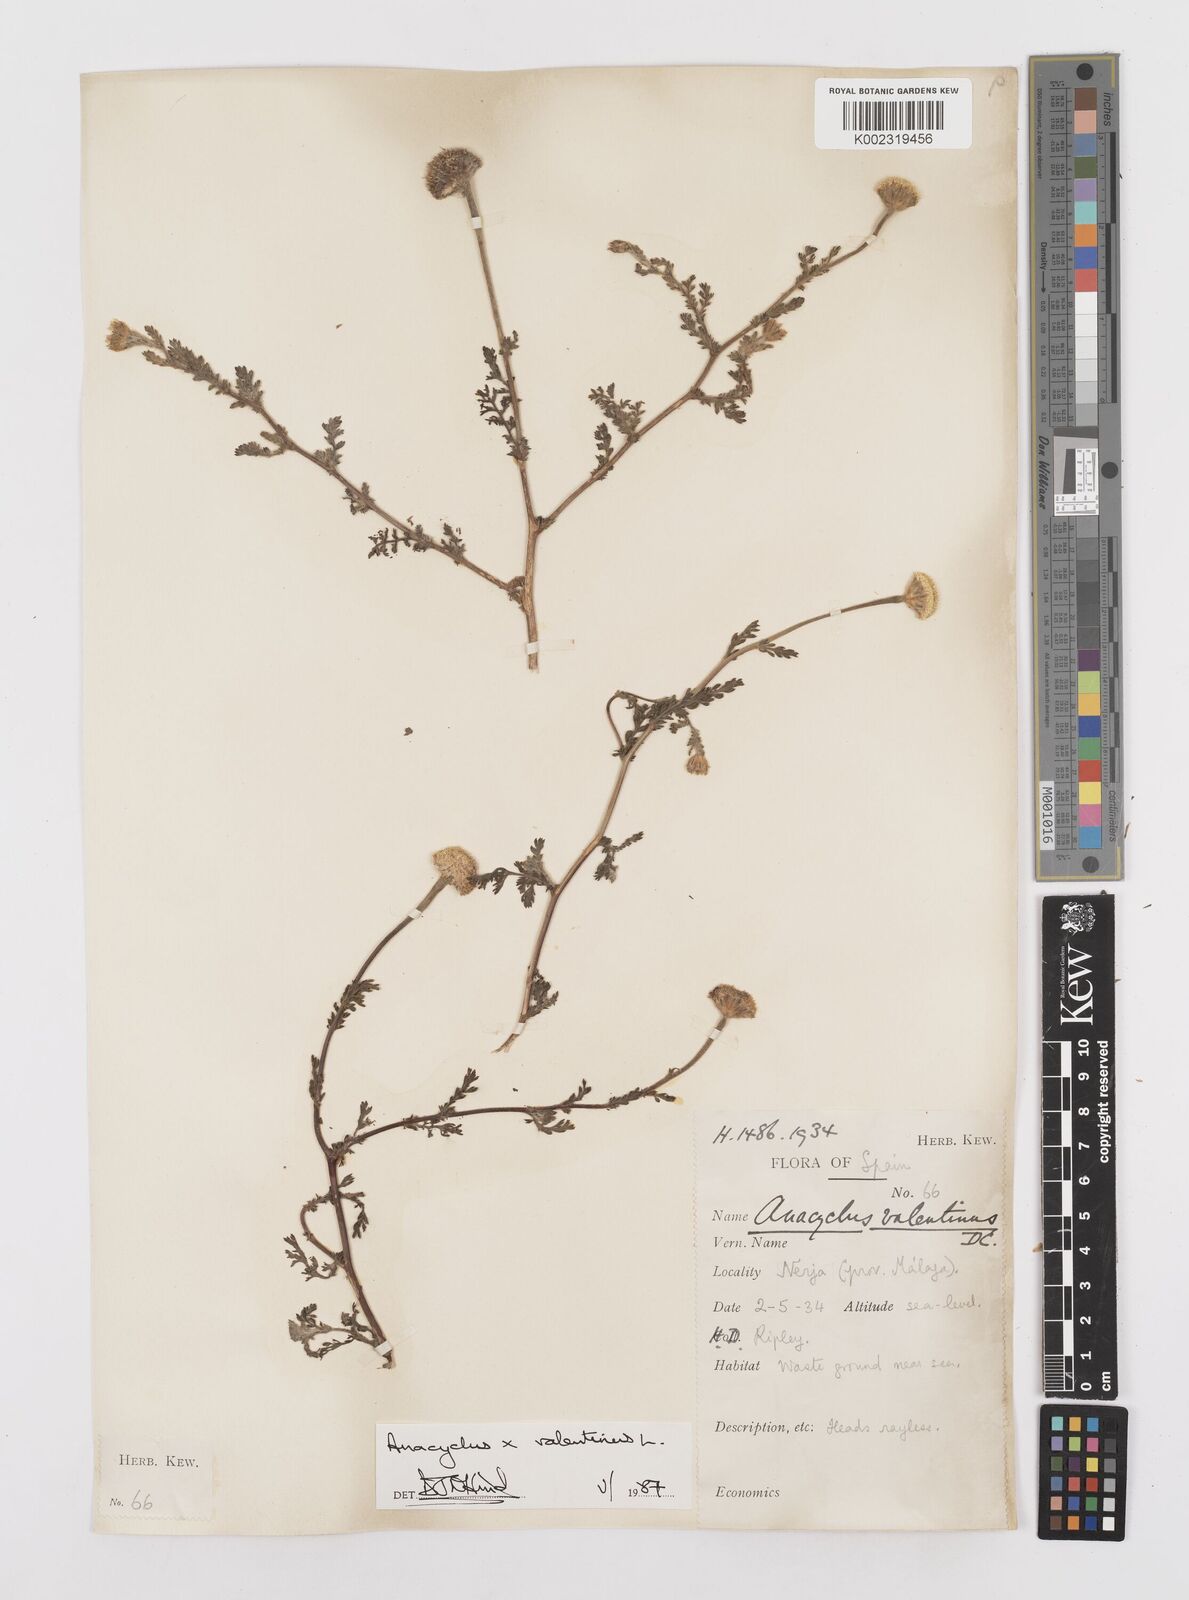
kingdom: Plantae
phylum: Tracheophyta
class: Magnoliopsida
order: Asterales
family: Asteraceae
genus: Anacyclus
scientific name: Anacyclus valentinus
